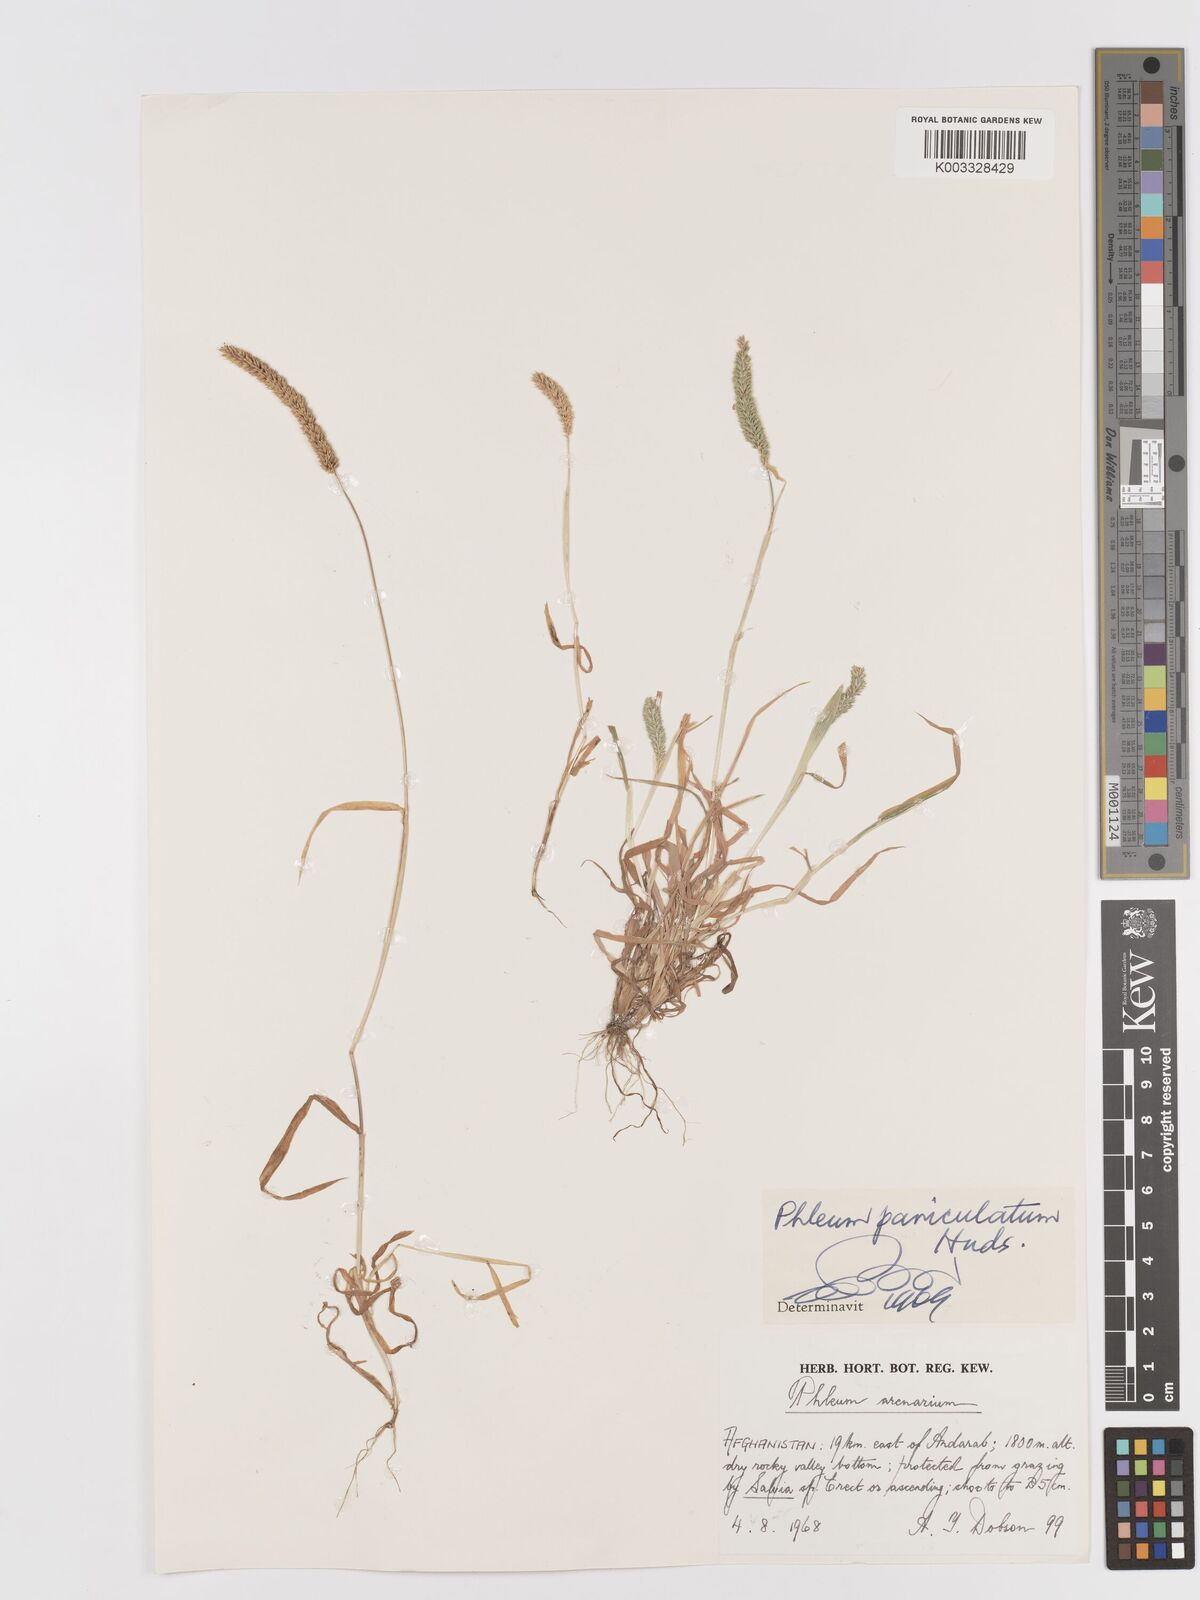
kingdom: Plantae
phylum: Tracheophyta
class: Liliopsida
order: Poales
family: Poaceae
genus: Phleum
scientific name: Phleum paniculatum
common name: British timothy
